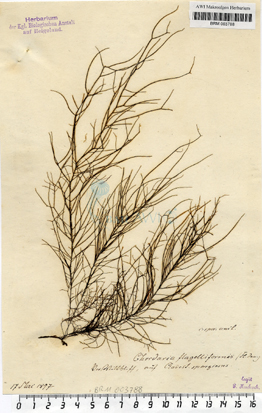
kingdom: Chromista
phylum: Ochrophyta
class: Phaeophyceae
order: Ectocarpales
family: Chordariaceae
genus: Chordaria
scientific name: Chordaria flagelliformis
